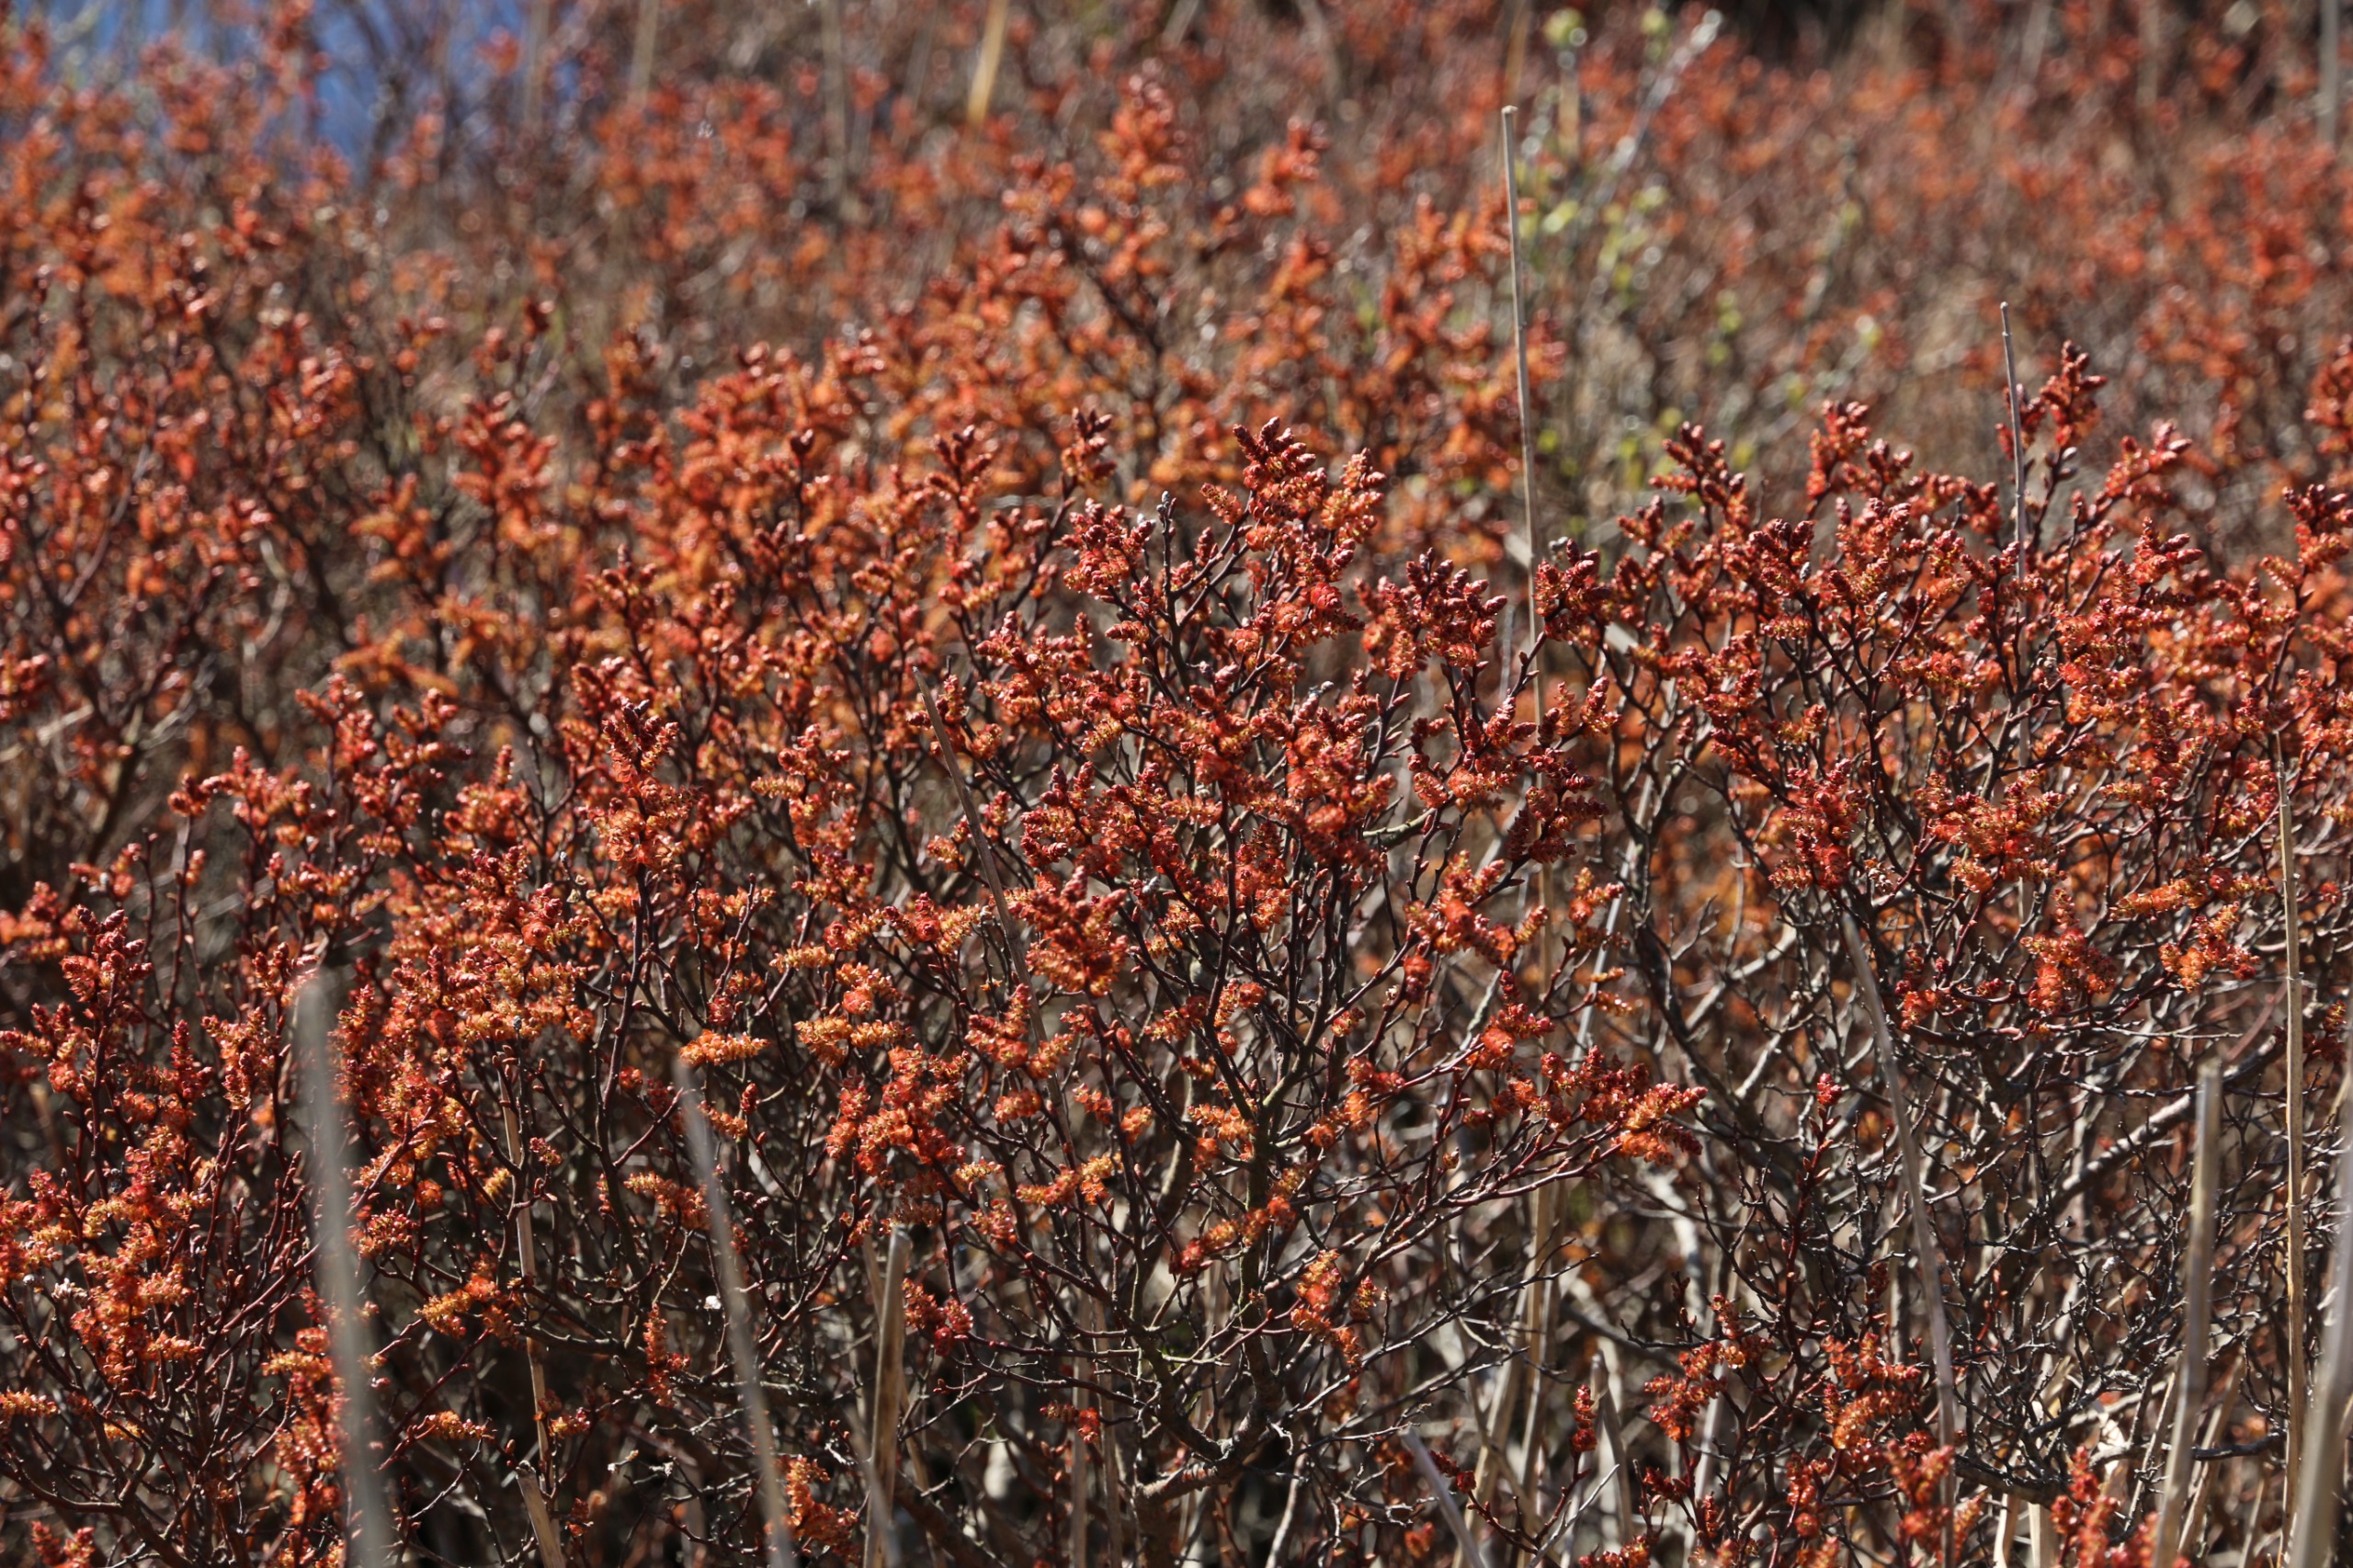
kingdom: Plantae
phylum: Tracheophyta
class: Magnoliopsida
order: Fagales
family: Myricaceae
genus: Myrica
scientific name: Myrica gale
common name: Pors
